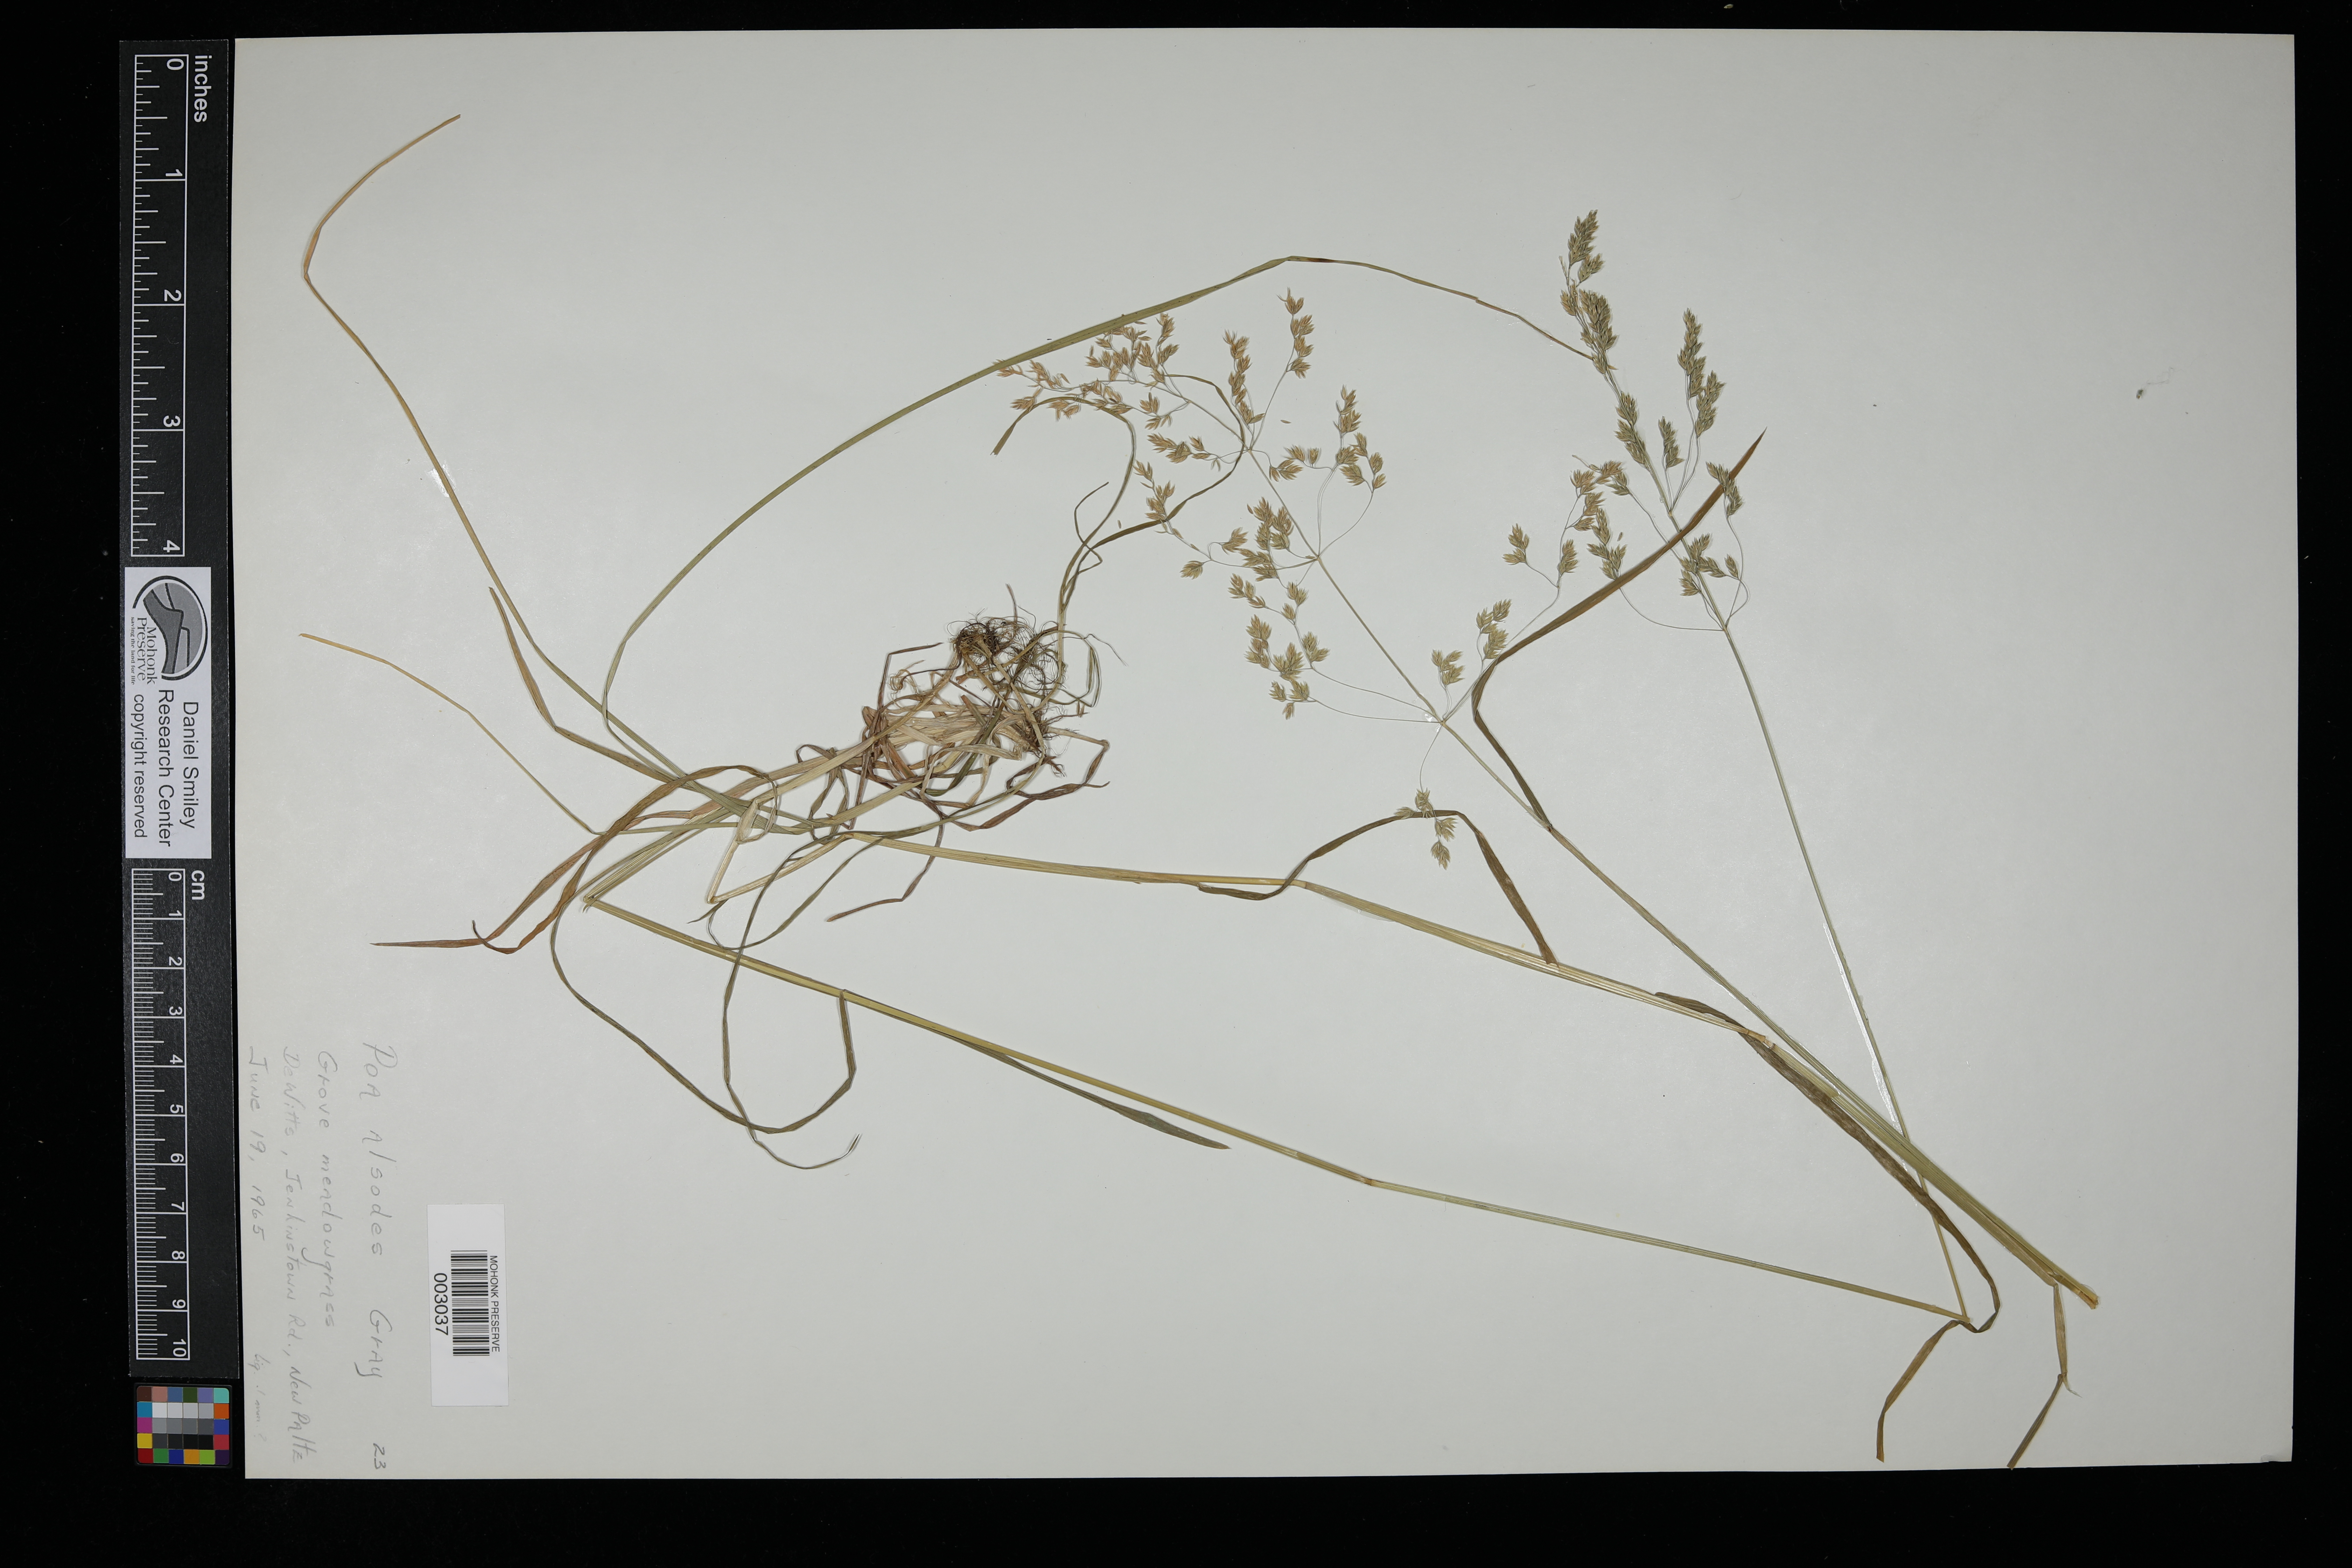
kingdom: Plantae
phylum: Tracheophyta
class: Liliopsida
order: Poales
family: Poaceae
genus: Poa
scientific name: Poa alsodes
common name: Grove bluegrass
